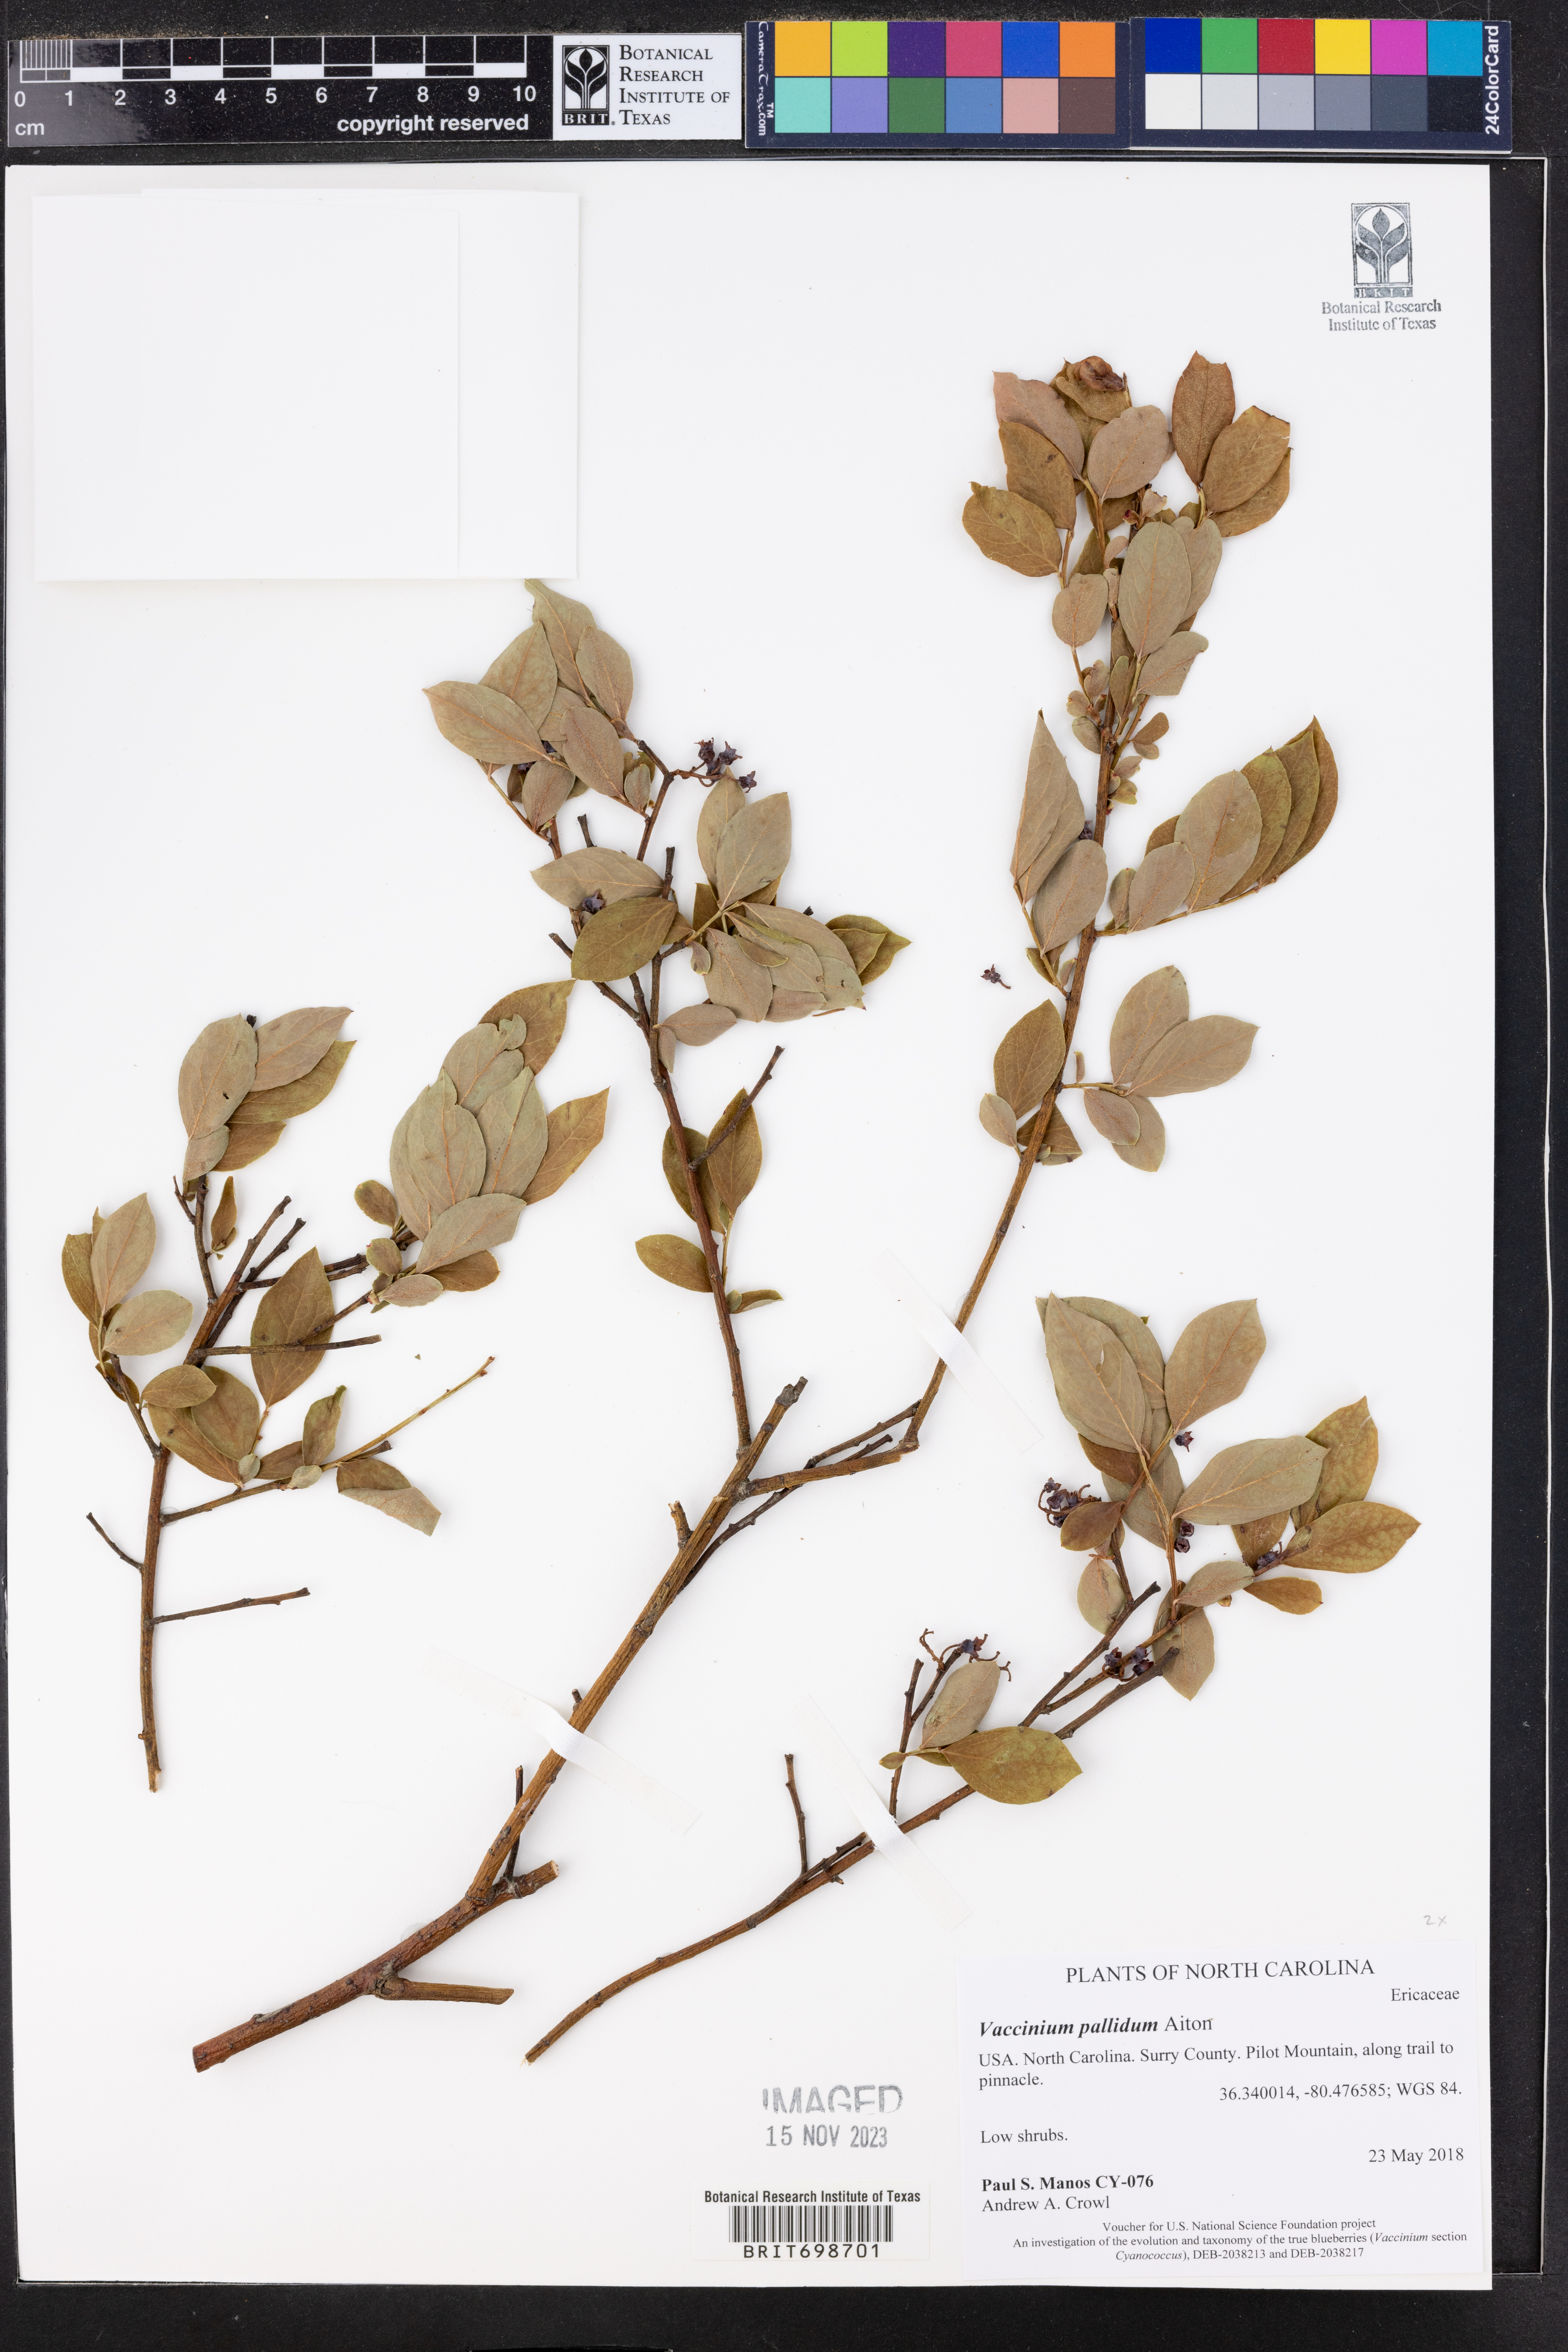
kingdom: Plantae
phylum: Tracheophyta
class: Magnoliopsida
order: Ericales
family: Ericaceae
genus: Vaccinium
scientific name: Vaccinium pallidum
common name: Blue ridge blueberry
